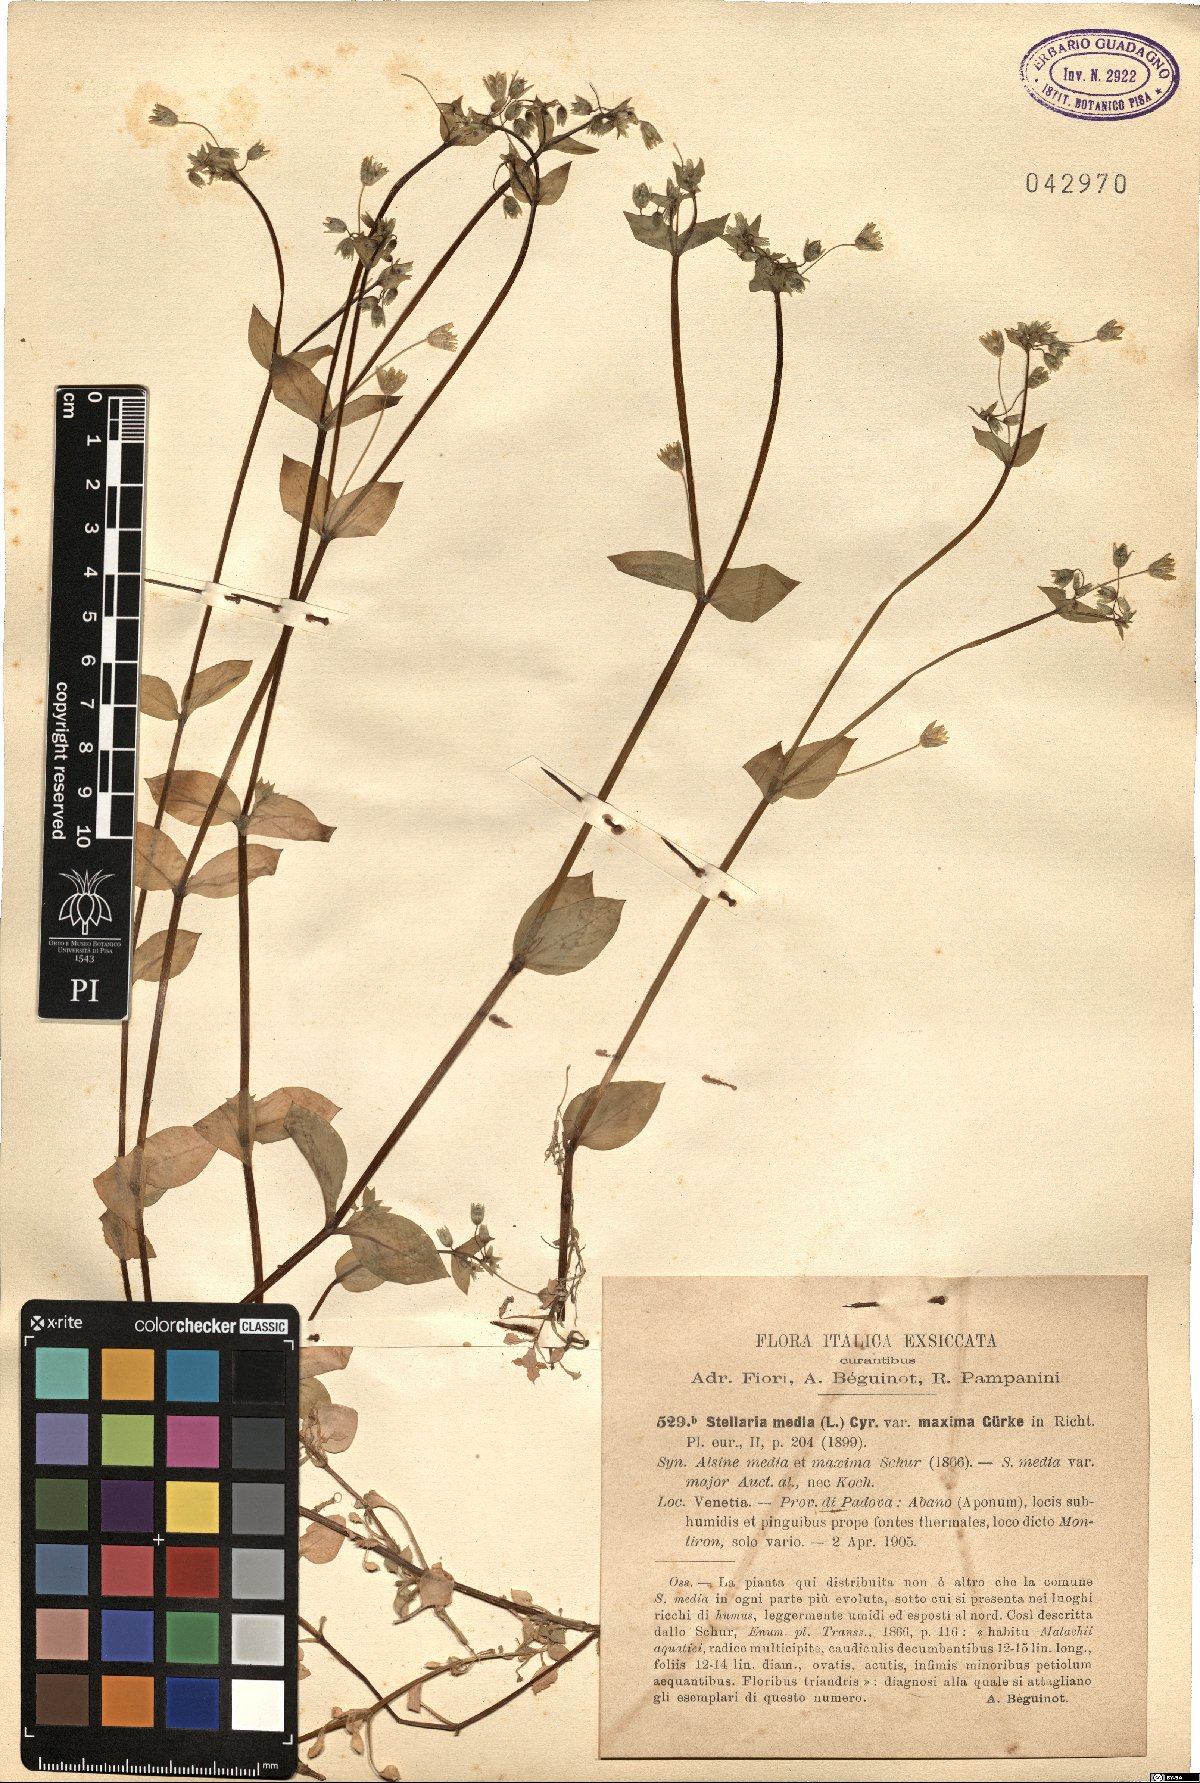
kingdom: Plantae
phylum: Tracheophyta
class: Magnoliopsida
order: Caryophyllales
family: Caryophyllaceae
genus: Stellaria
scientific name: Stellaria media
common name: Common chickweed
